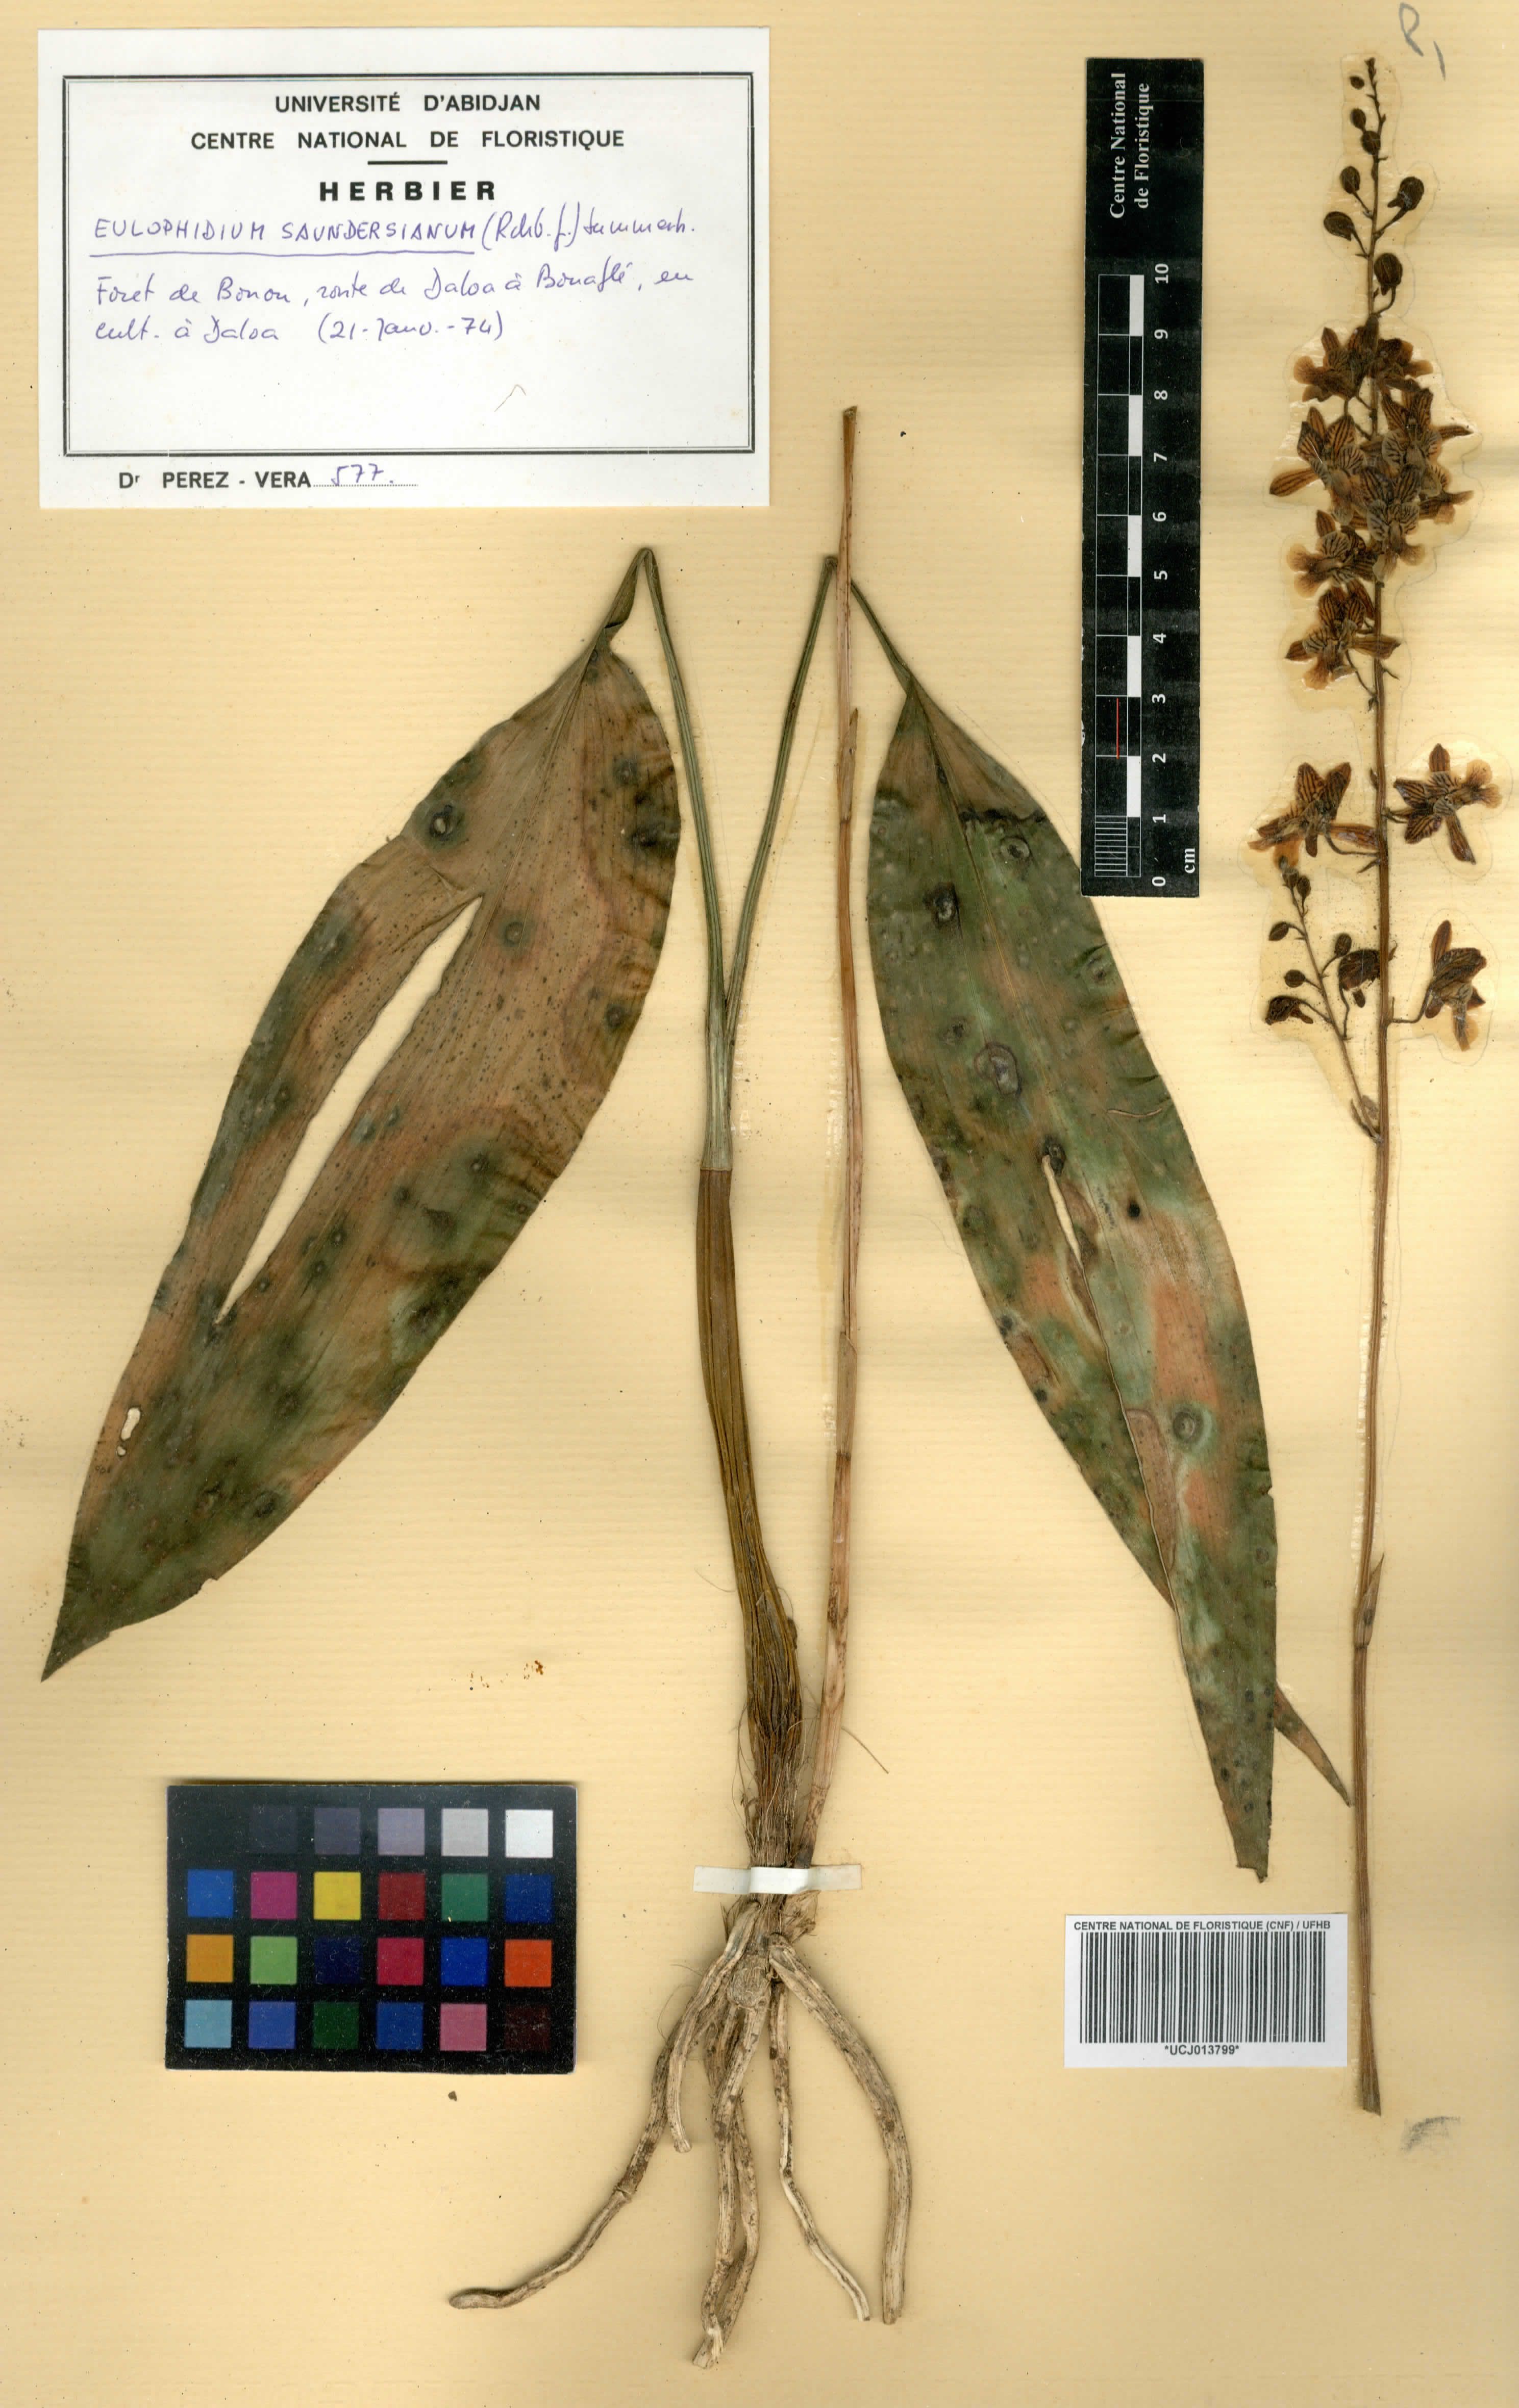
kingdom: Plantae
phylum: Tracheophyta
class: Liliopsida
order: Asparagales
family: Orchidaceae
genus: Eulophia
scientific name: Eulophia saundersiana
